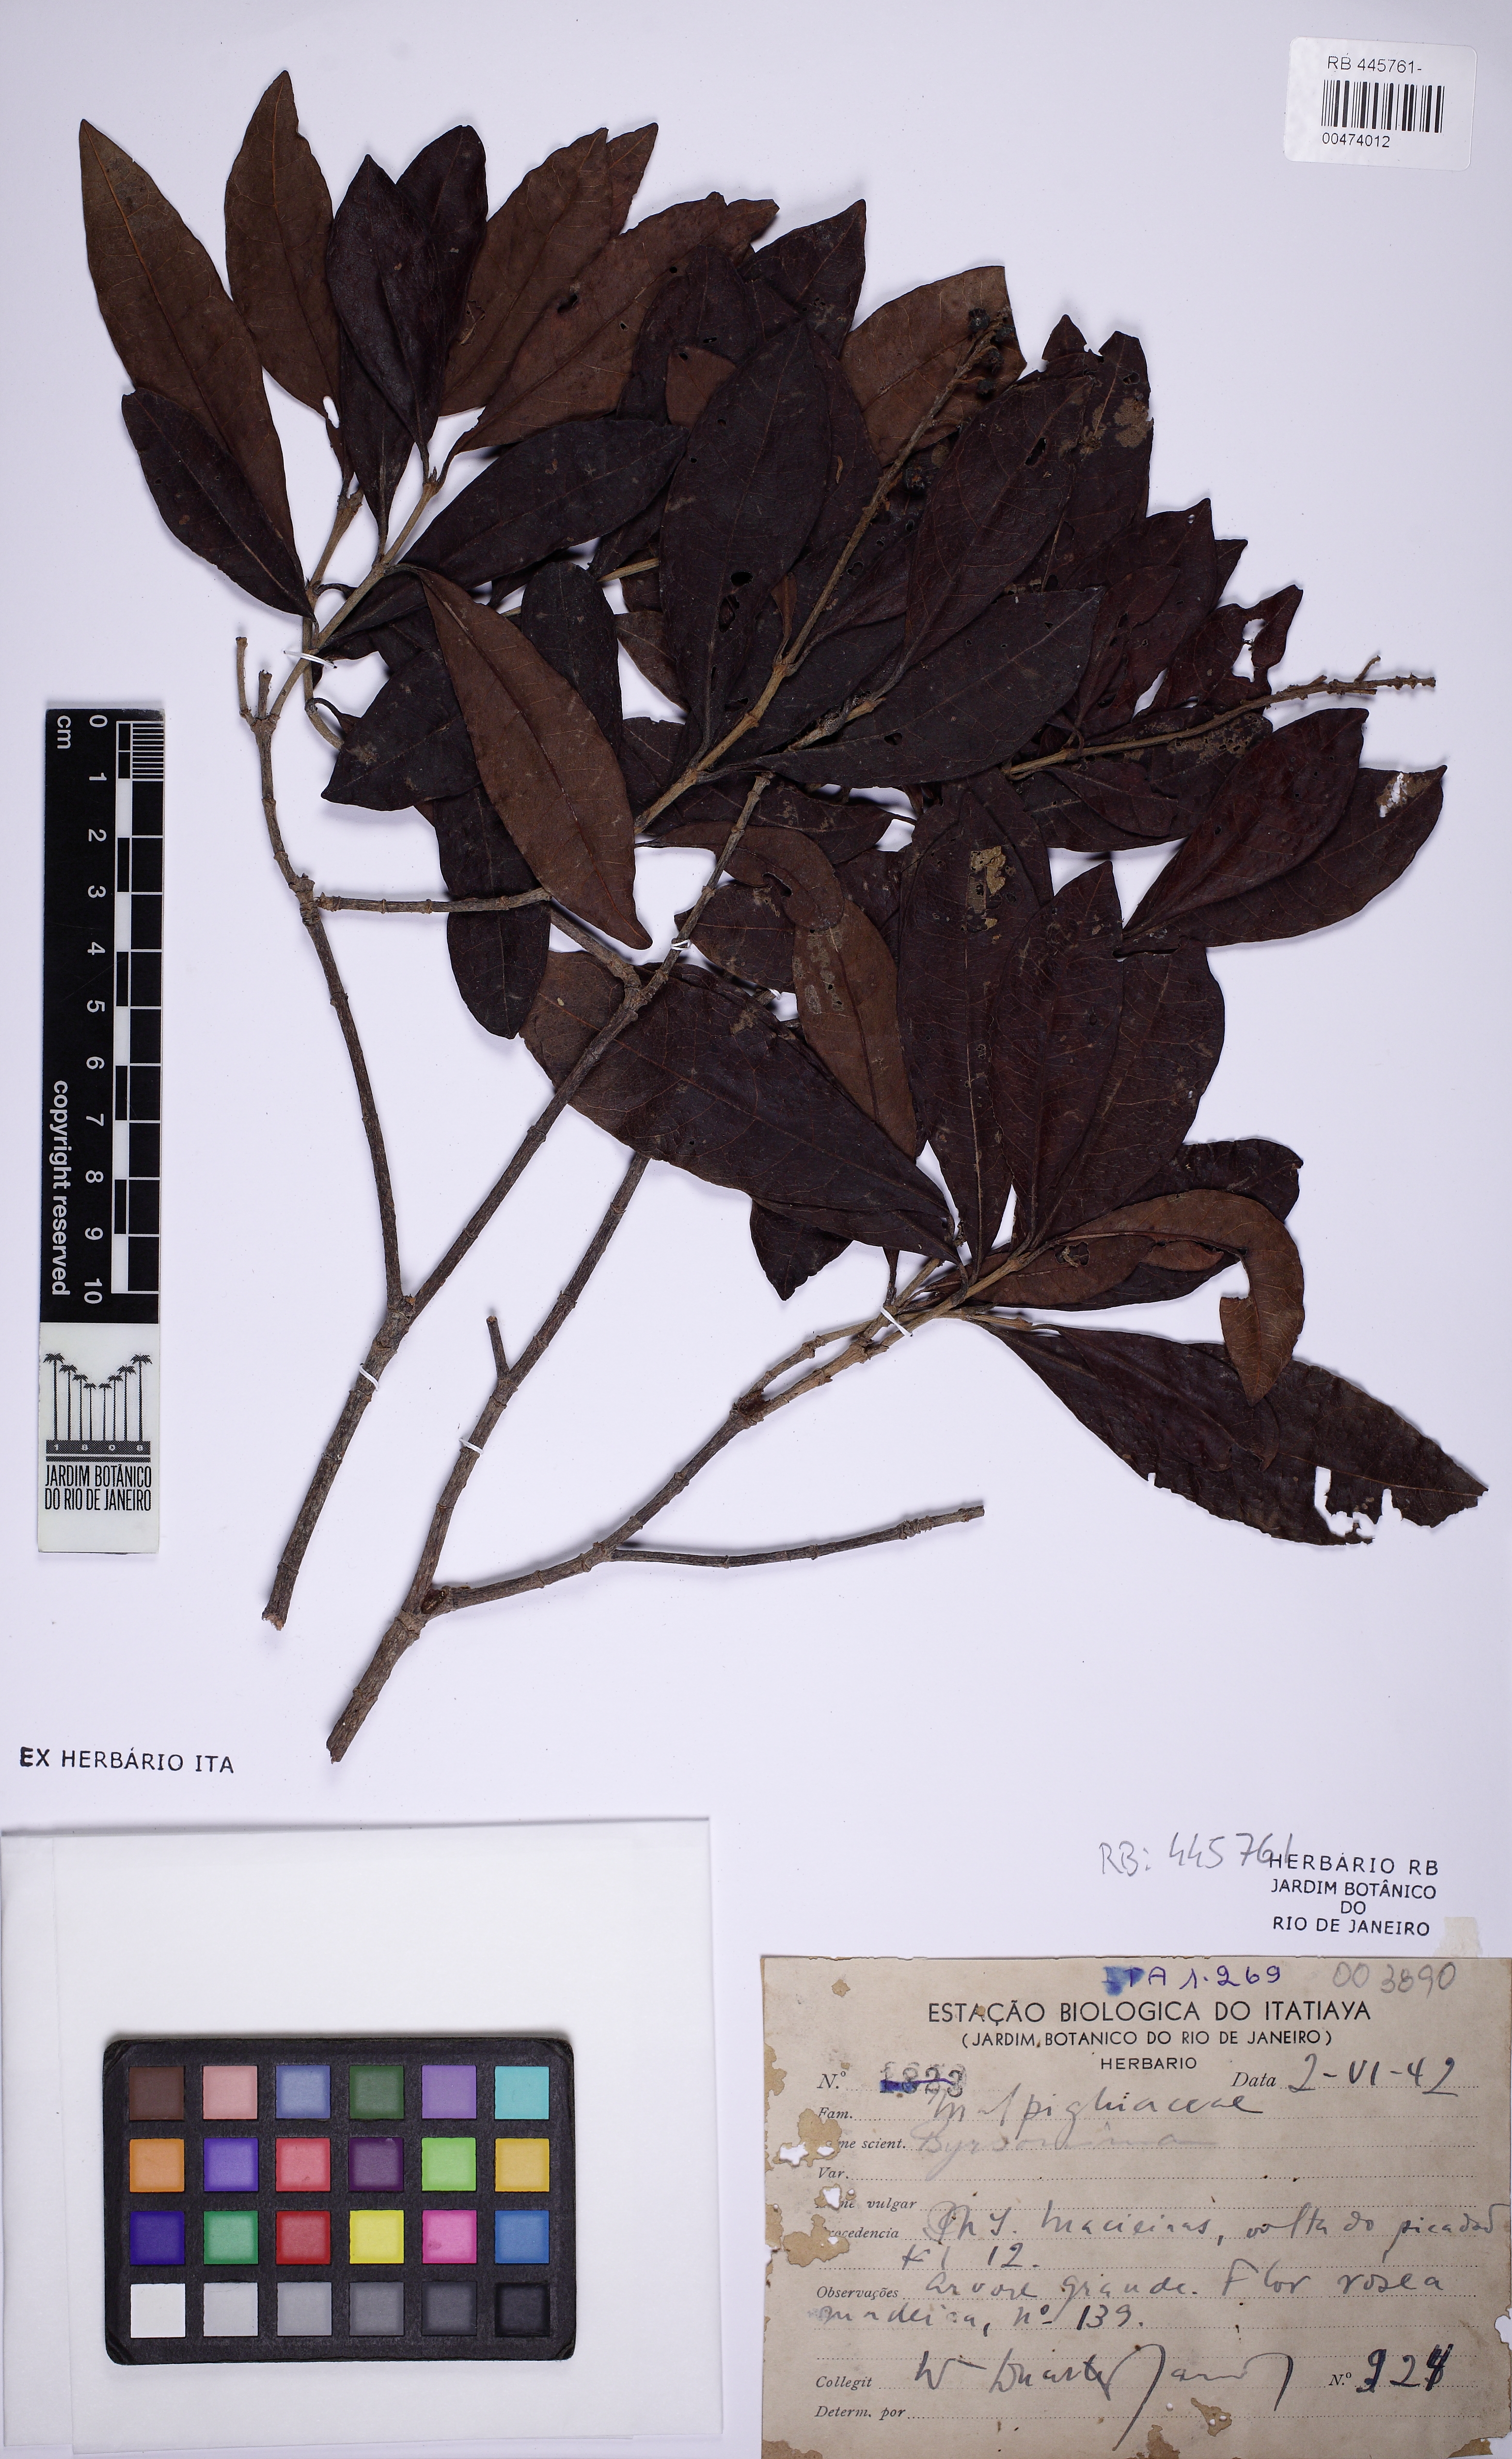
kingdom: Plantae
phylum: Tracheophyta
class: Magnoliopsida
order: Malpighiales
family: Malpighiaceae
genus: Byrsonima
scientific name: Byrsonima
